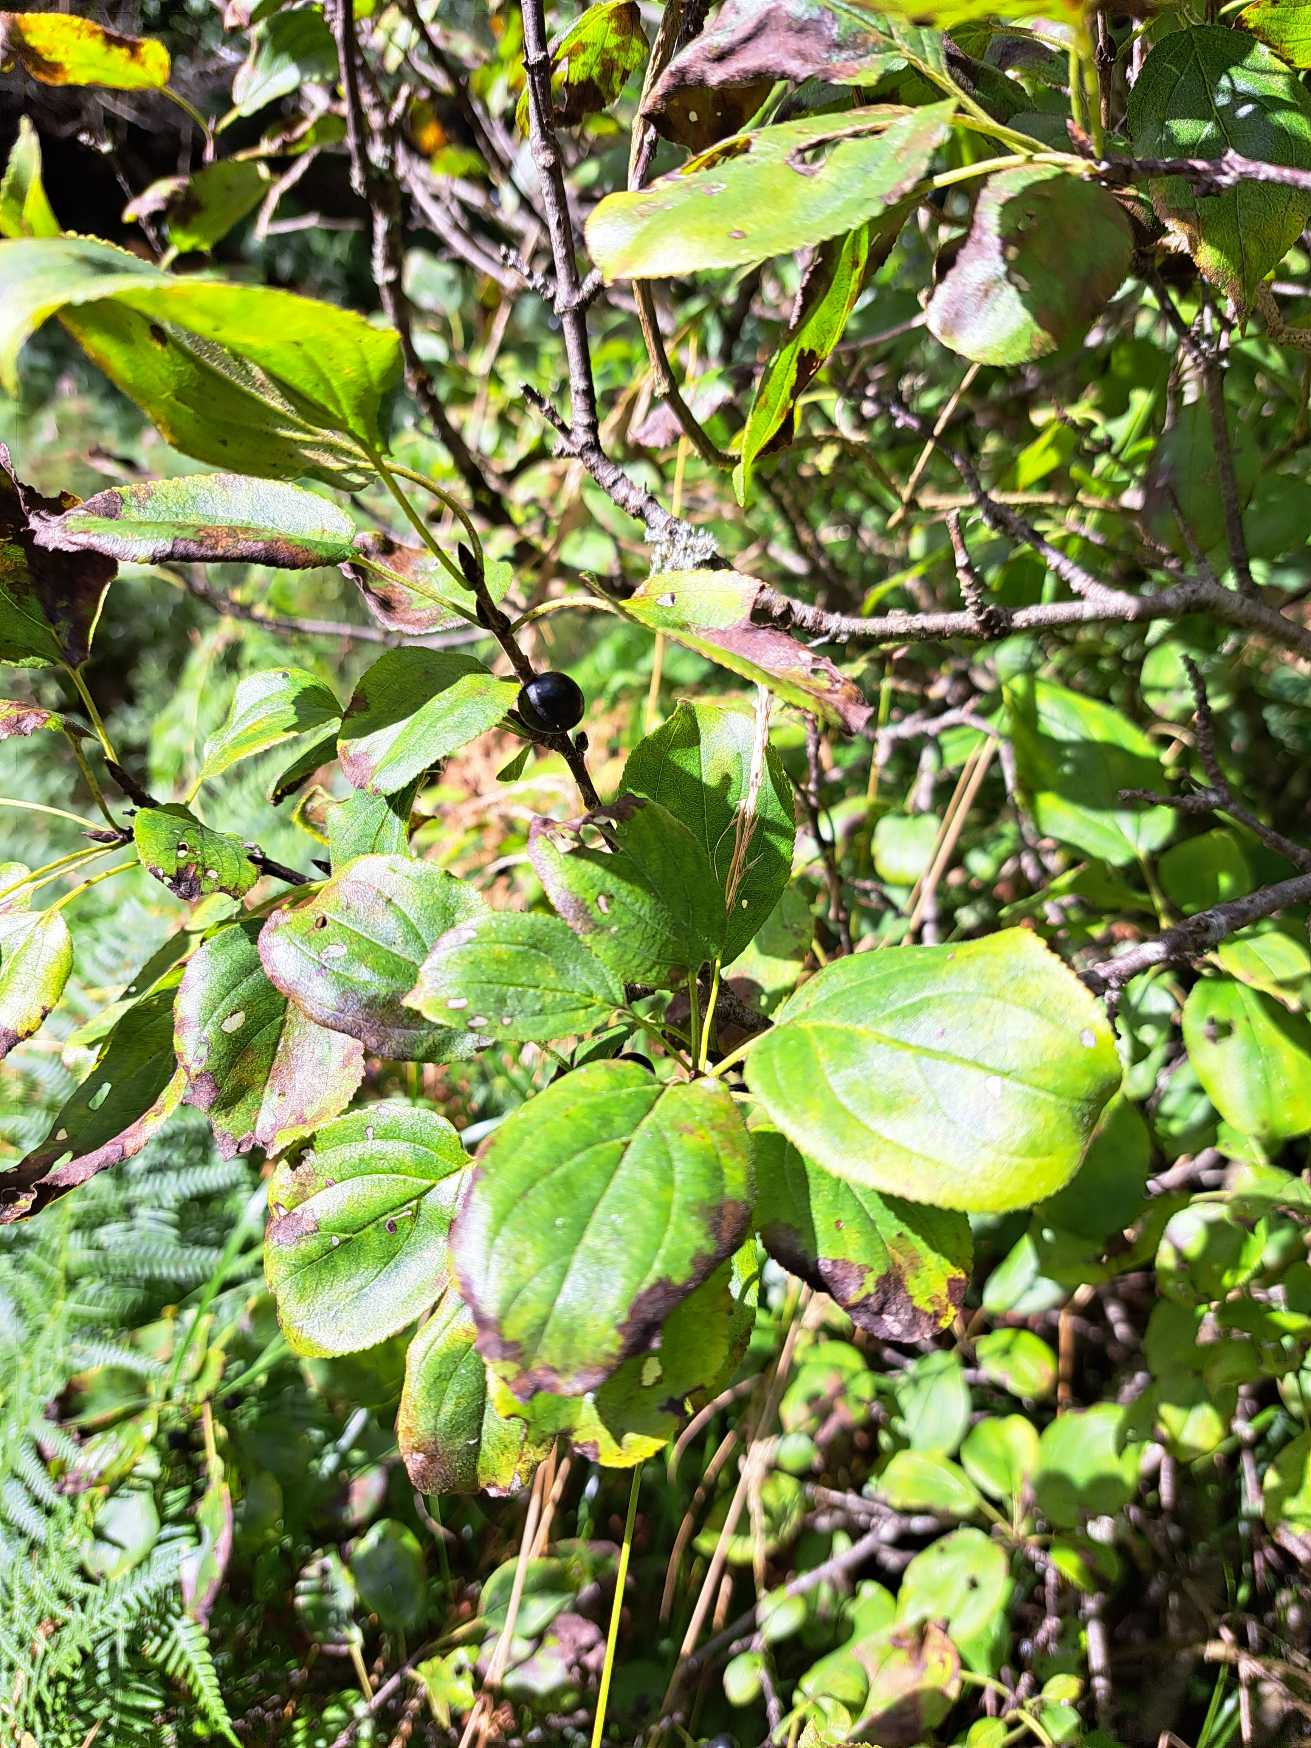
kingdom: Plantae
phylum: Tracheophyta
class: Magnoliopsida
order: Rosales
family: Rhamnaceae
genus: Rhamnus
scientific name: Rhamnus cathartica
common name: Vrietorn
